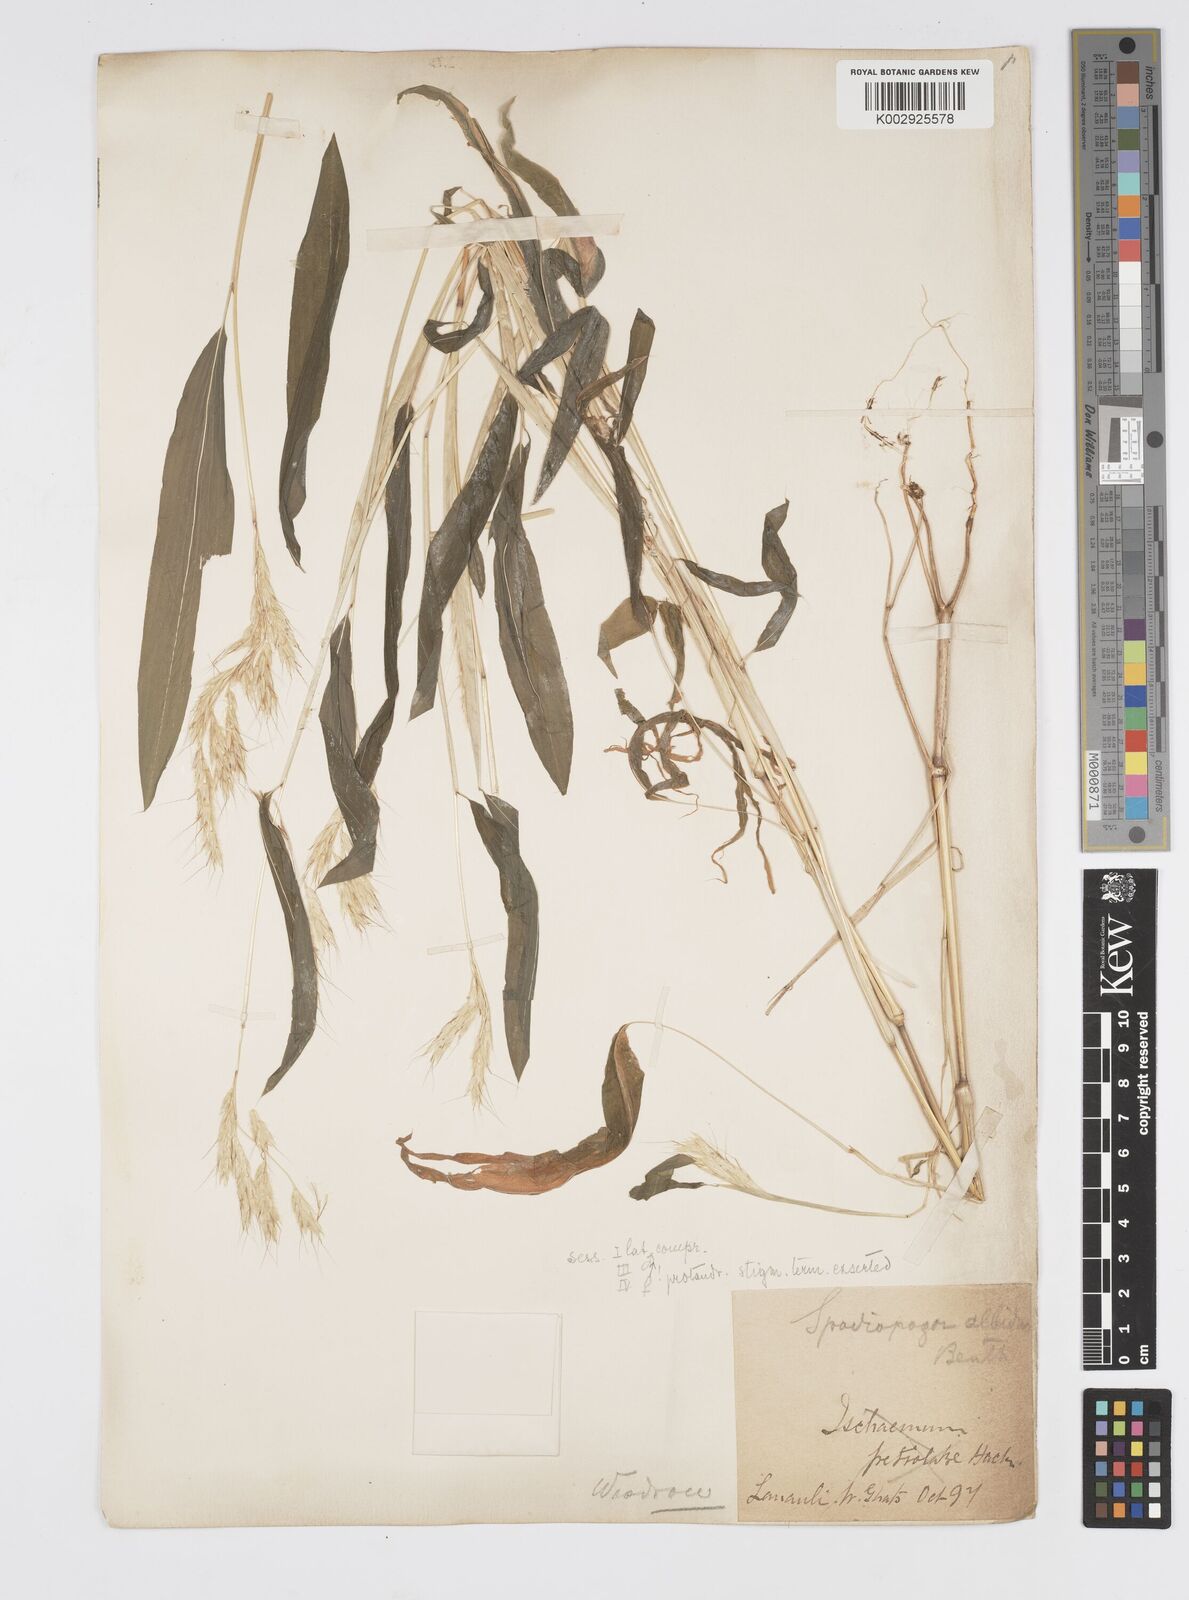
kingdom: Plantae
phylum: Tracheophyta
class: Liliopsida
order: Poales
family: Poaceae
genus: Spodiopogon
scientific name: Spodiopogon rhizophorus
